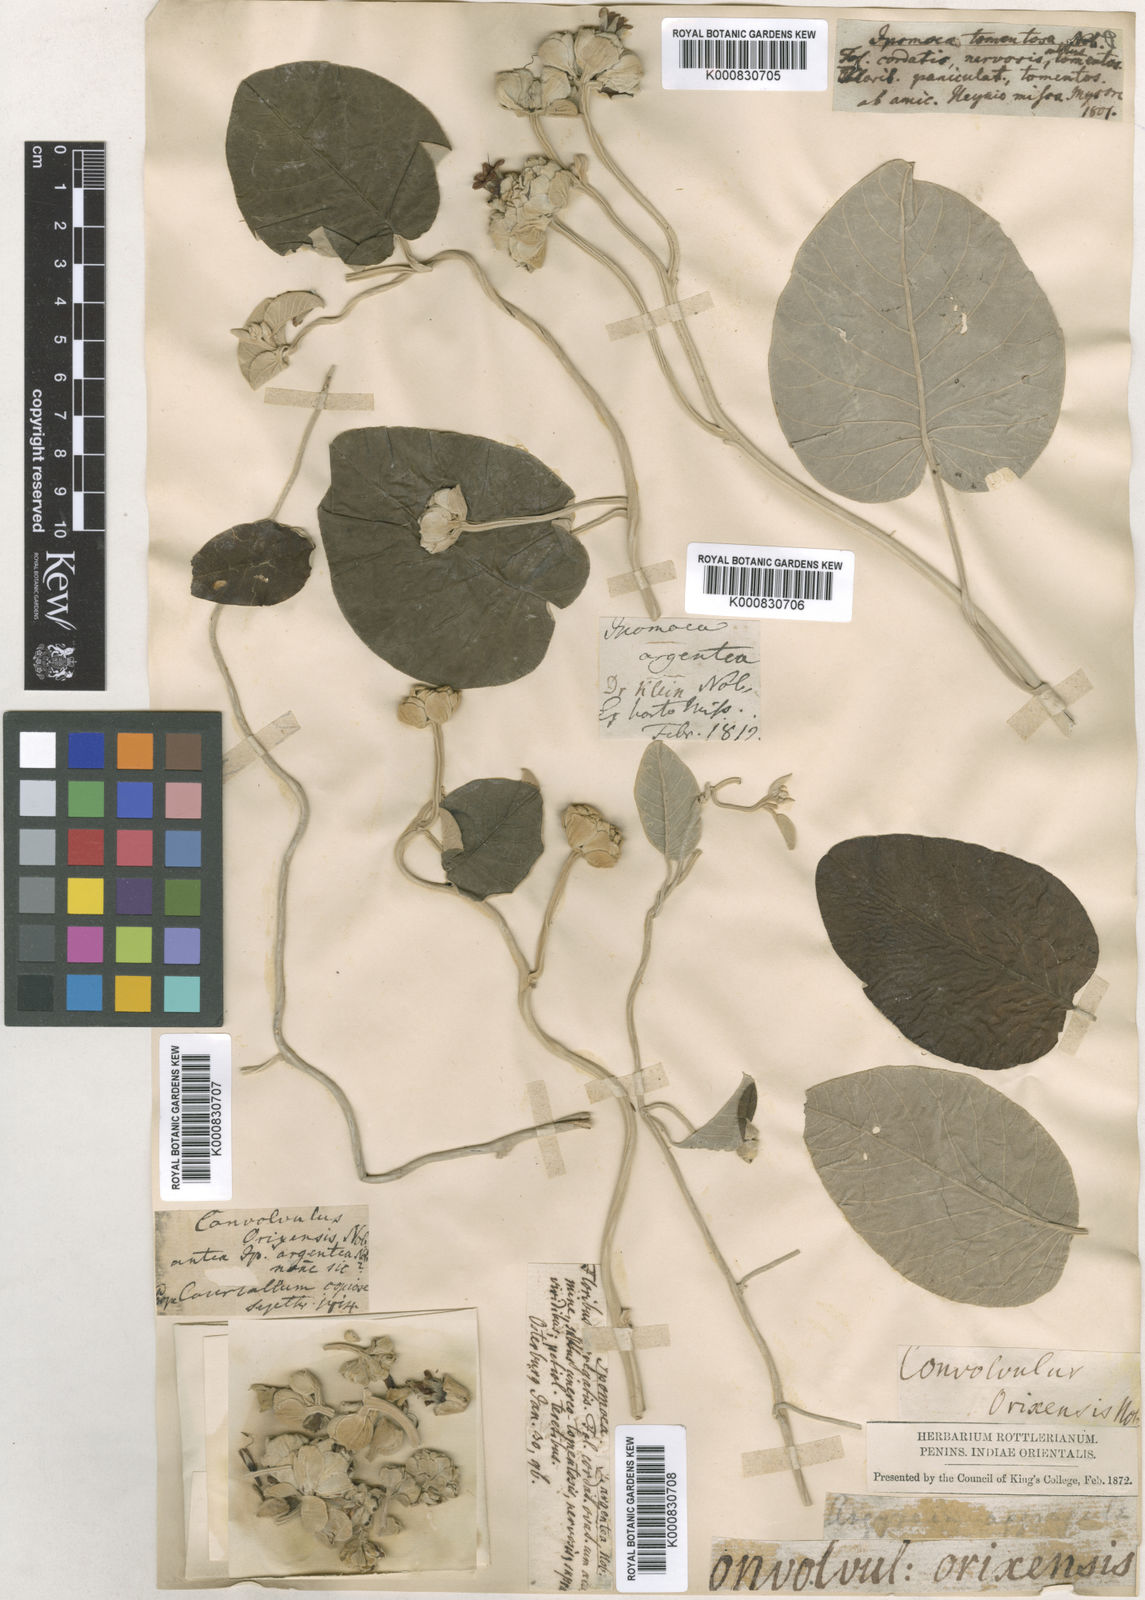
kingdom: Plantae
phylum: Tracheophyta
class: Magnoliopsida
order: Solanales
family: Convolvulaceae
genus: Argyreia
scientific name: Argyreia osyrensis
